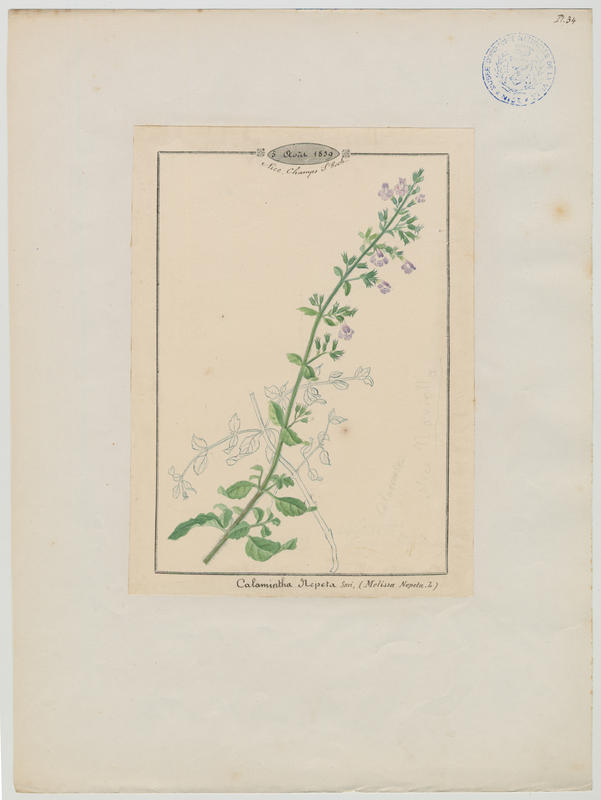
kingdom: Plantae
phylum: Tracheophyta
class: Magnoliopsida
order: Lamiales
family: Lamiaceae
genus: Clinopodium
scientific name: Clinopodium nepeta
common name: Lesser calamint
